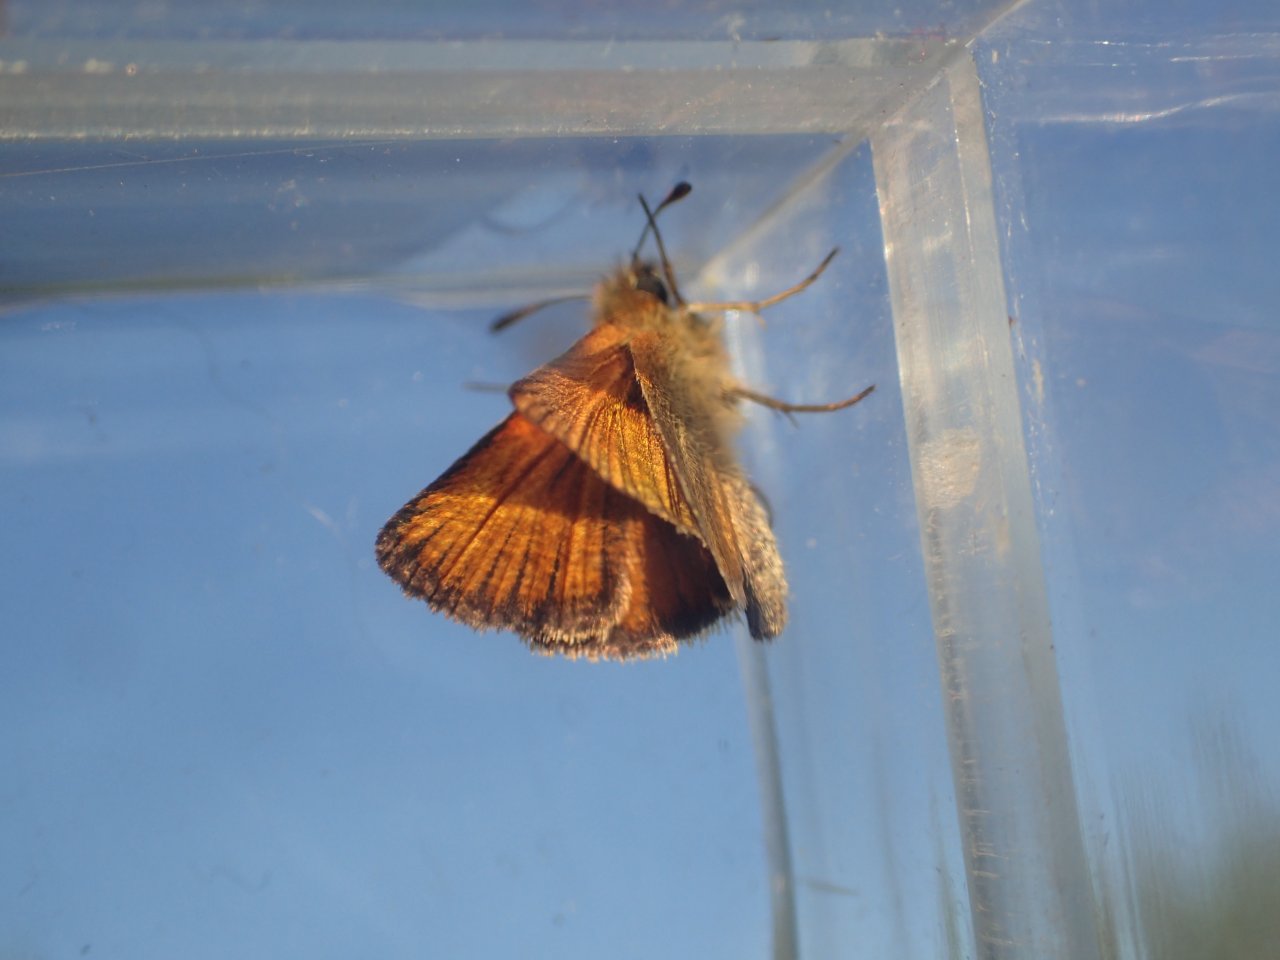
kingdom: Animalia
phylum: Arthropoda
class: Insecta
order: Lepidoptera
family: Hesperiidae
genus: Thymelicus
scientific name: Thymelicus lineola
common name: European Skipper
